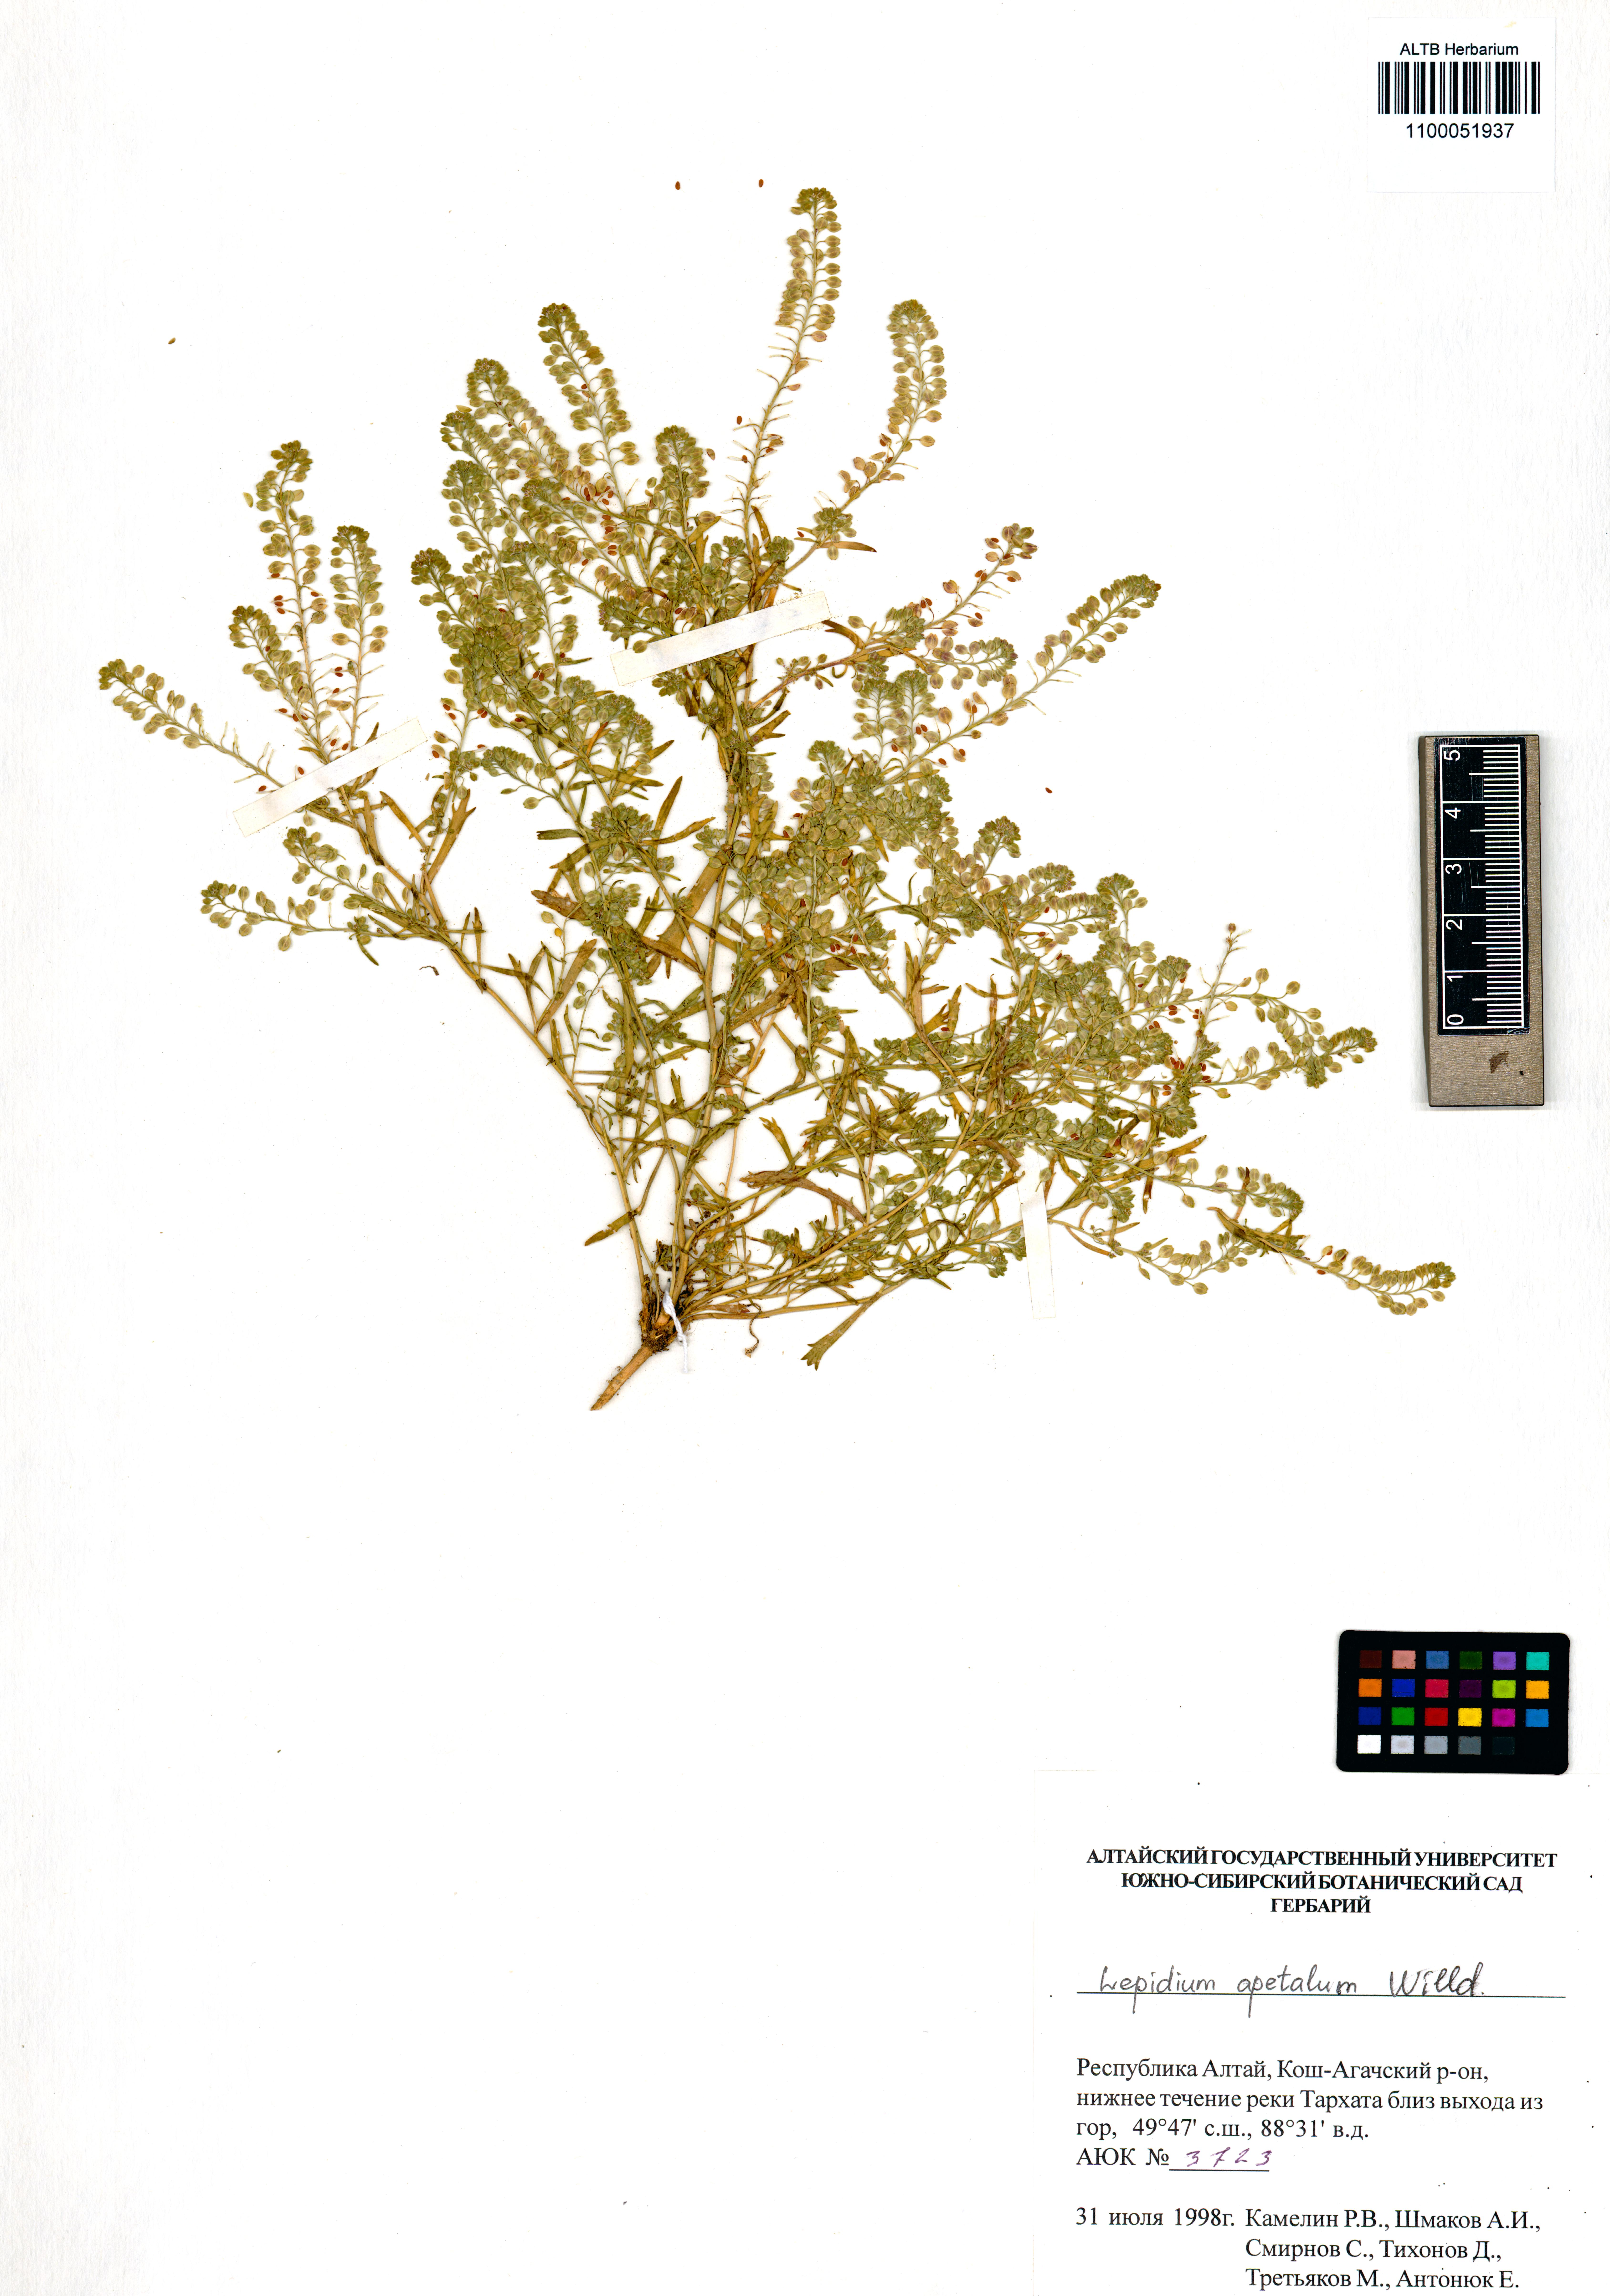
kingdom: Plantae
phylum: Tracheophyta
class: Magnoliopsida
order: Brassicales
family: Brassicaceae
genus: Lepidium
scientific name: Lepidium apetalum
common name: Pepperweed
